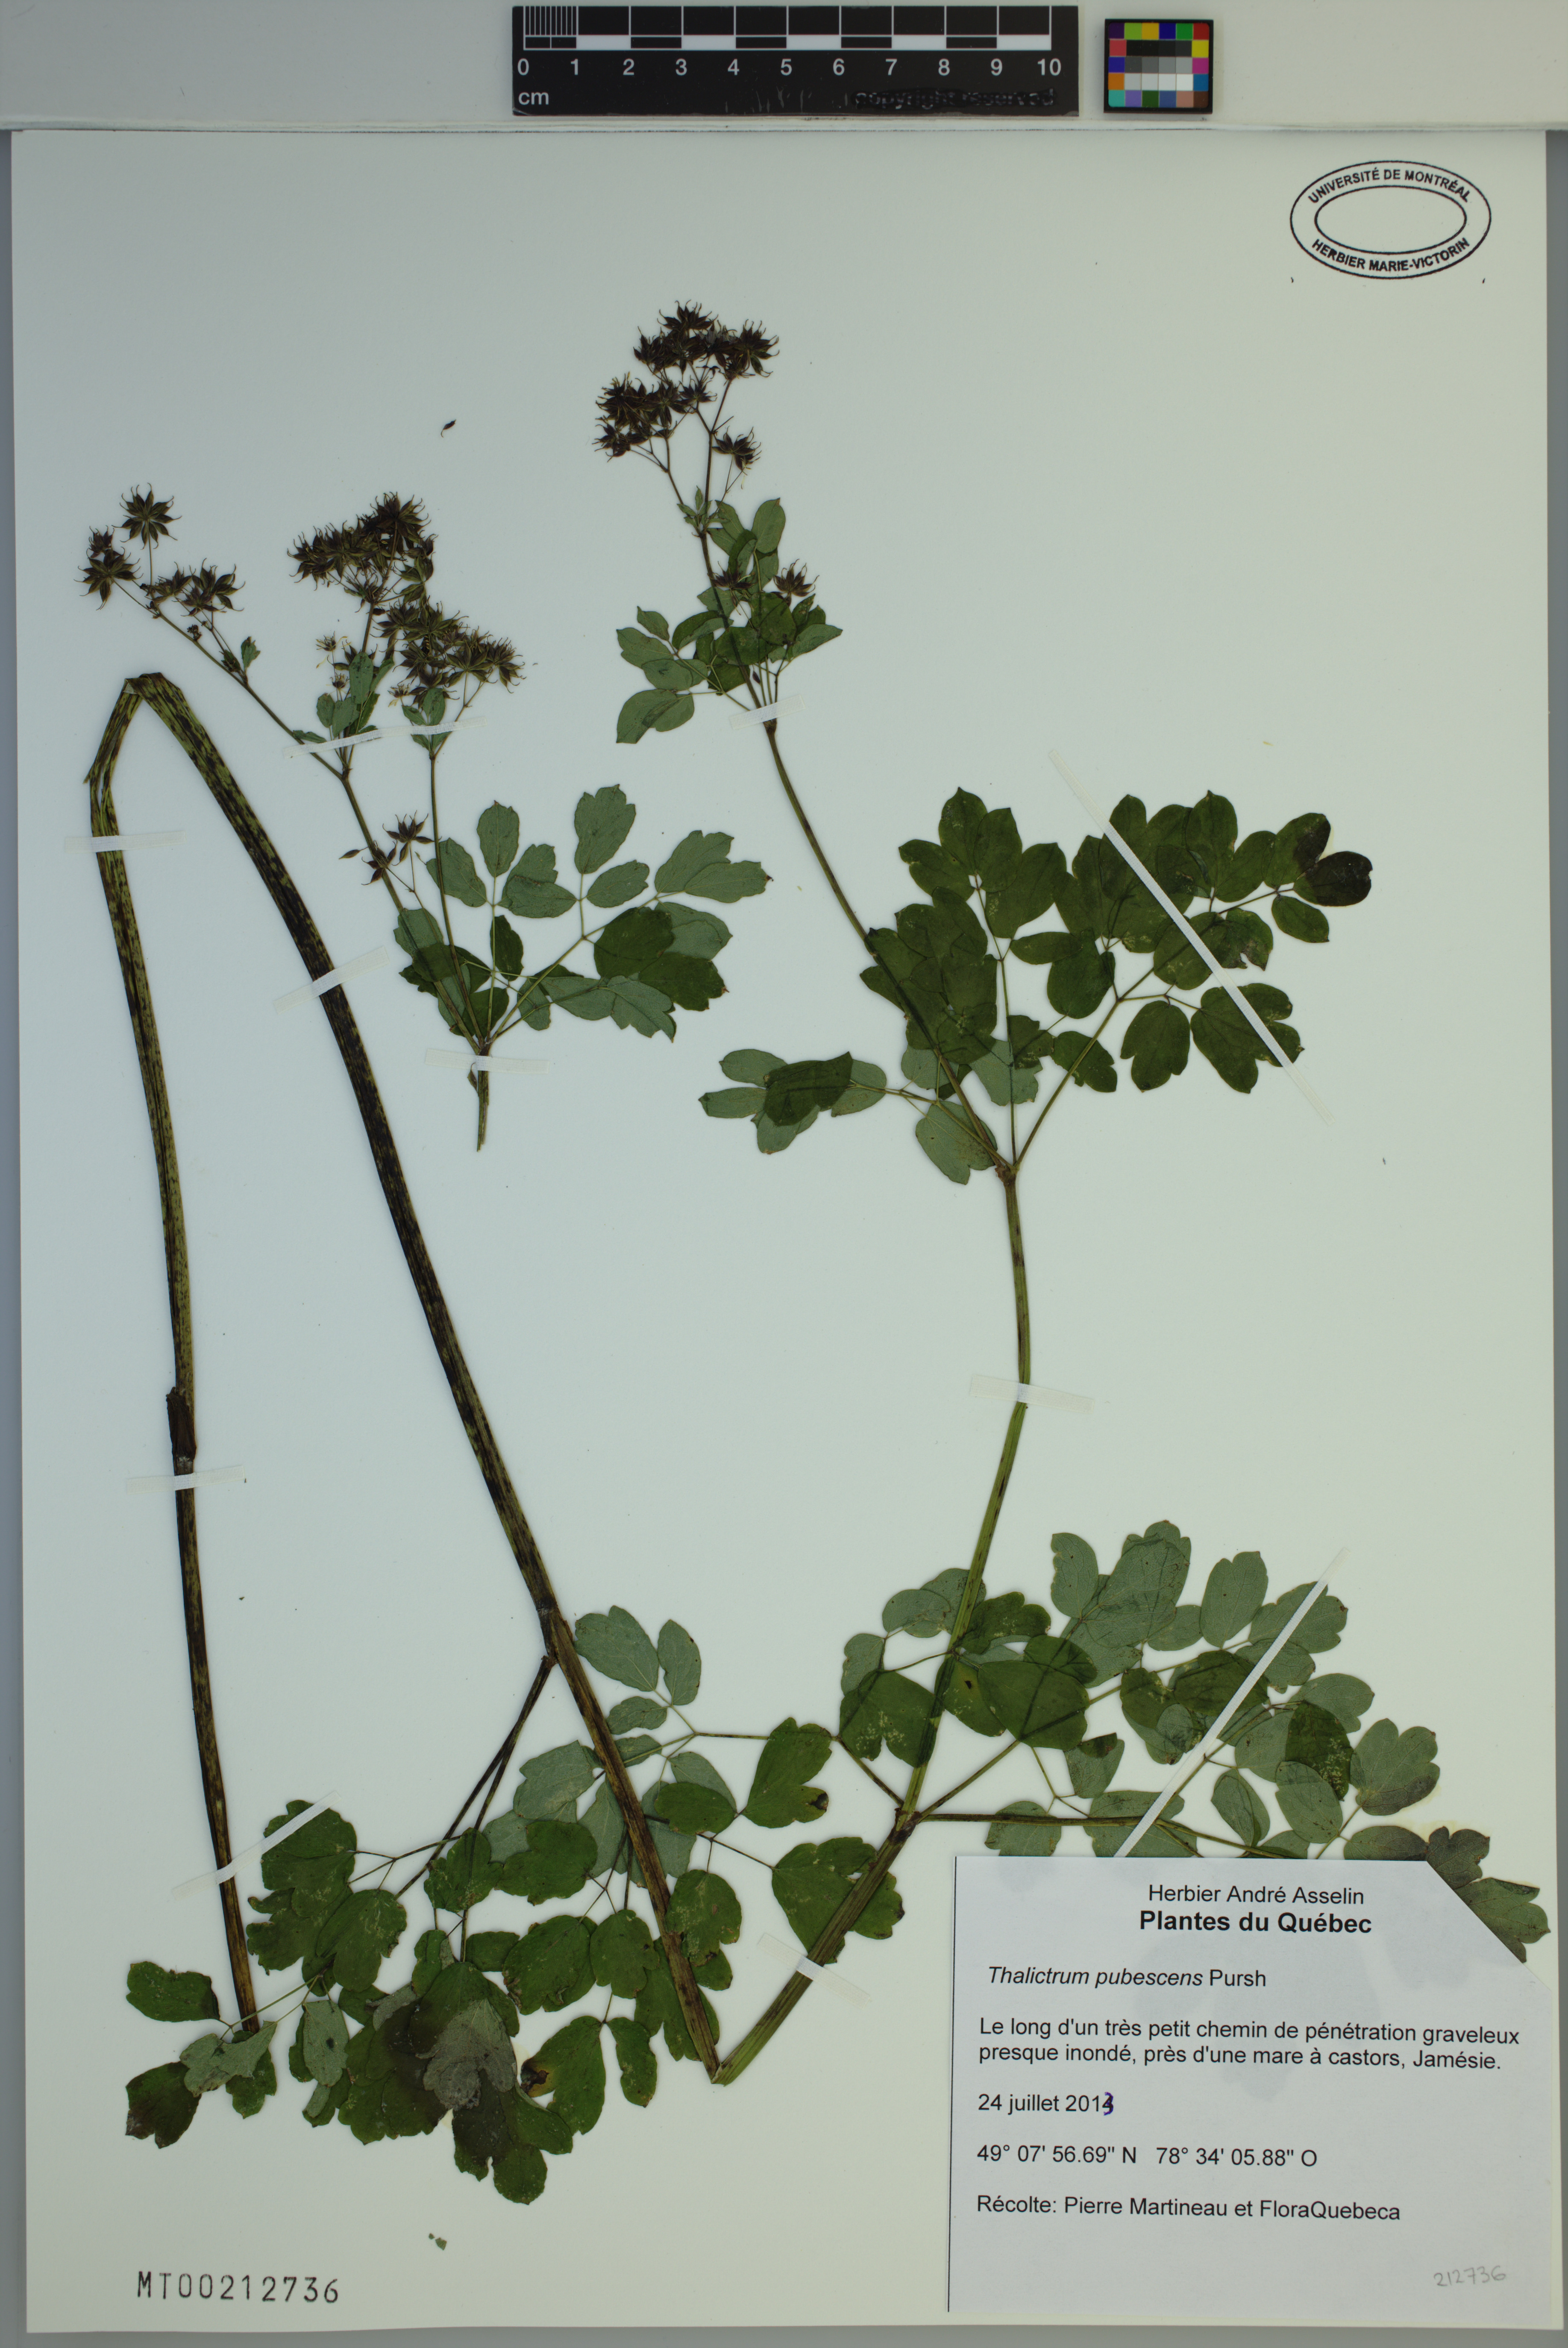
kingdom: Plantae
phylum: Tracheophyta
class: Magnoliopsida
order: Ranunculales
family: Ranunculaceae
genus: Thalictrum
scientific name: Thalictrum pubescens
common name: King-of-the-meadow
